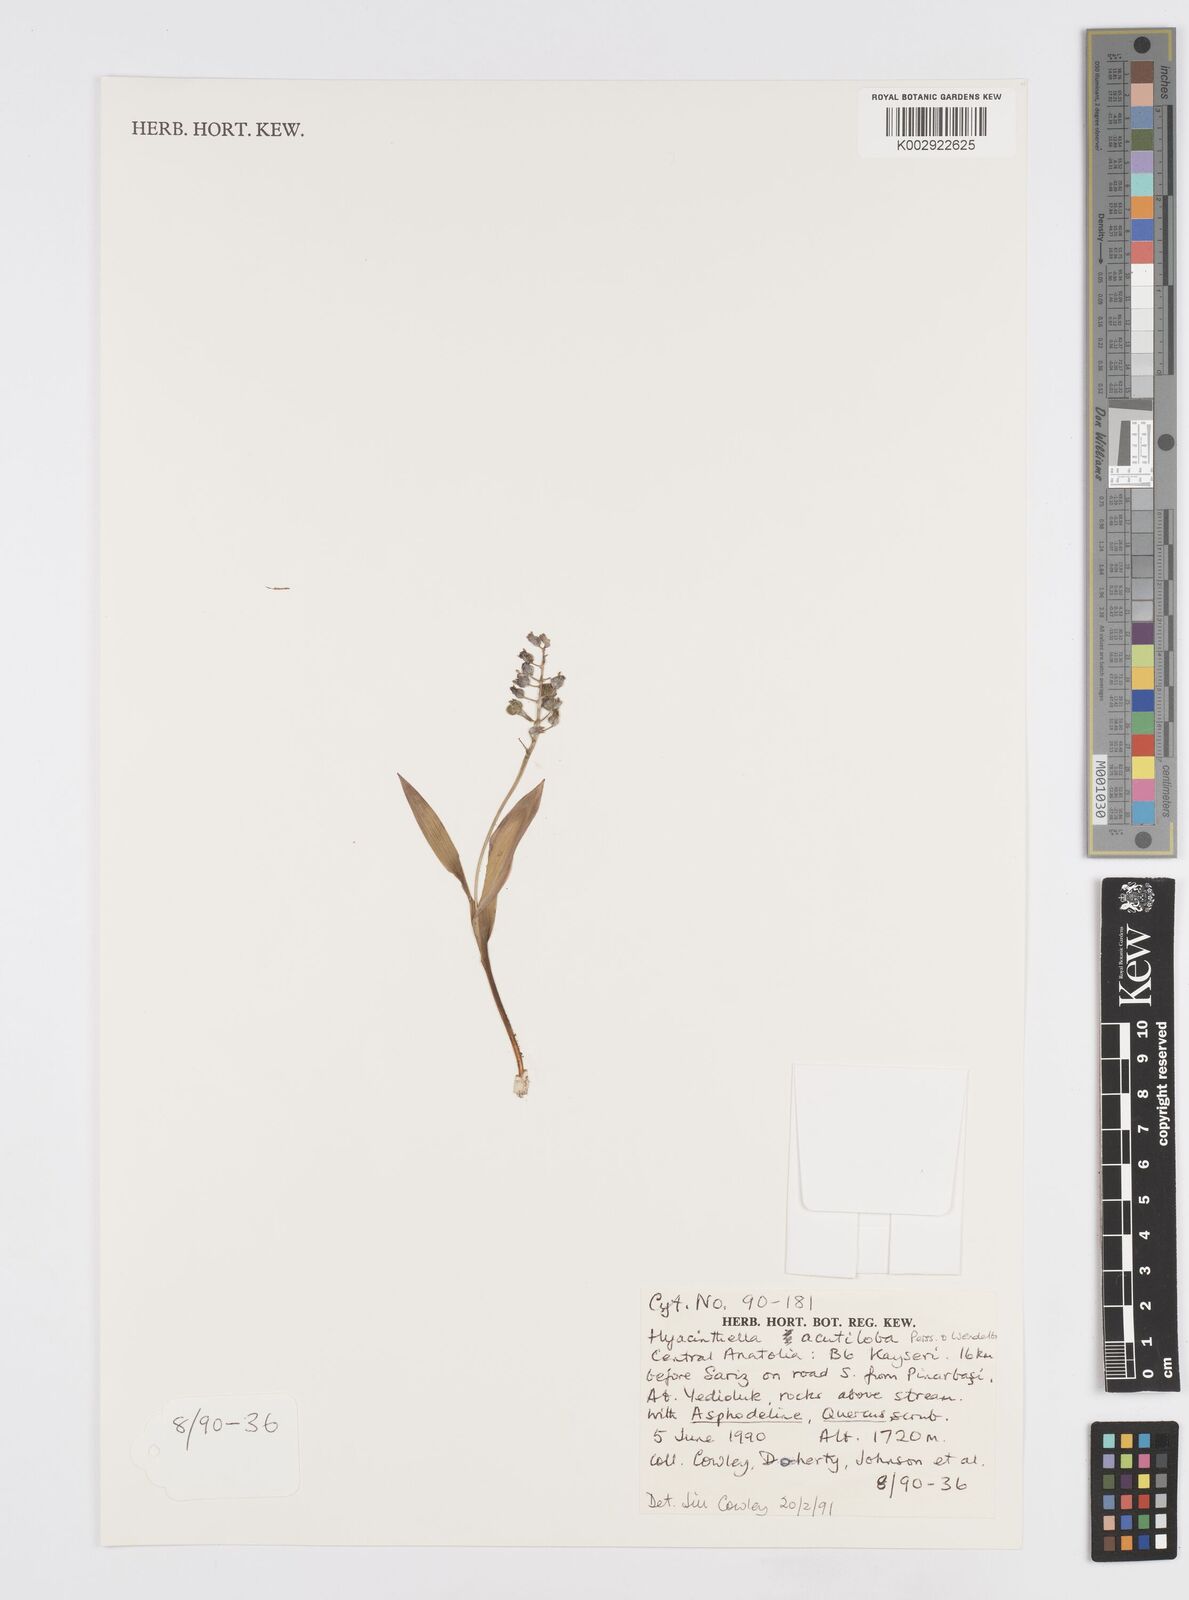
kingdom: Plantae
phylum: Tracheophyta
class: Liliopsida
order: Asparagales
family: Asparagaceae
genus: Hyacinthella
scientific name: Hyacinthella acutiloba
